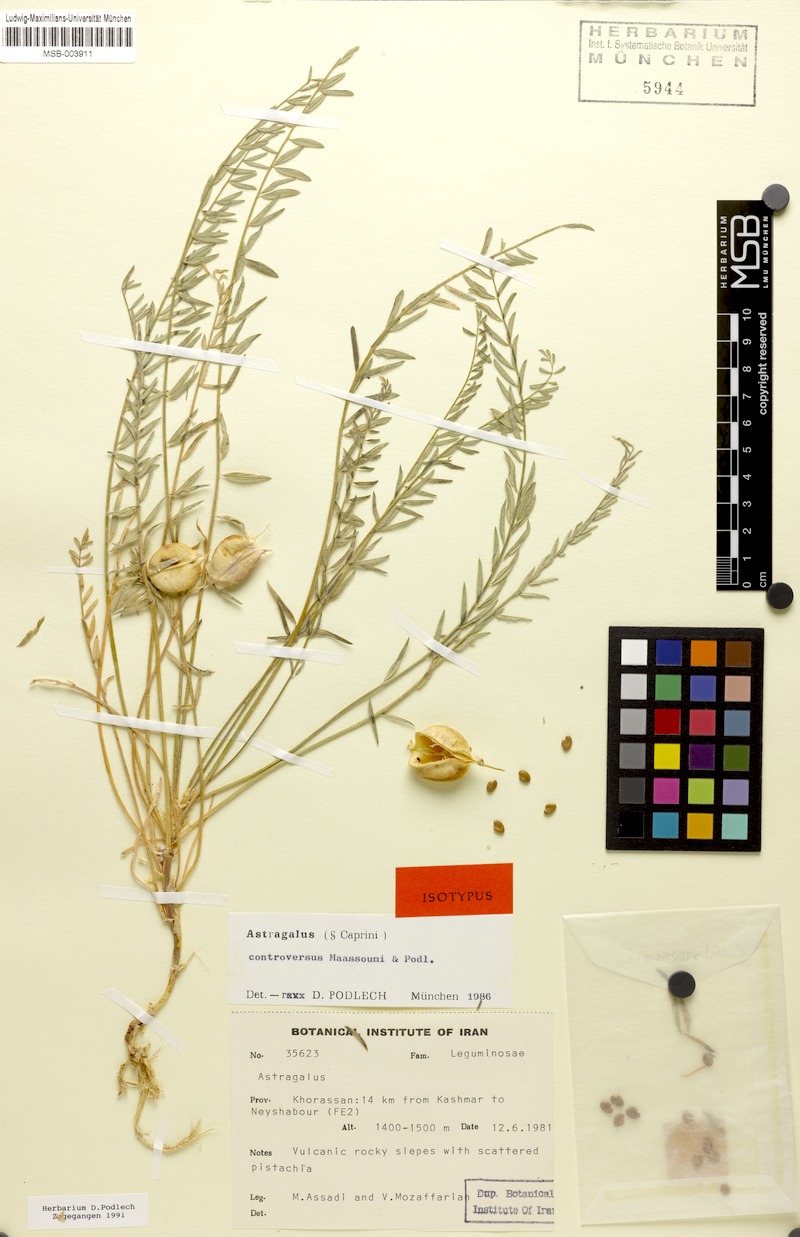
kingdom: Plantae
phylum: Tracheophyta
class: Magnoliopsida
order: Fabales
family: Fabaceae
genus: Astragalus
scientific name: Astragalus controversus
